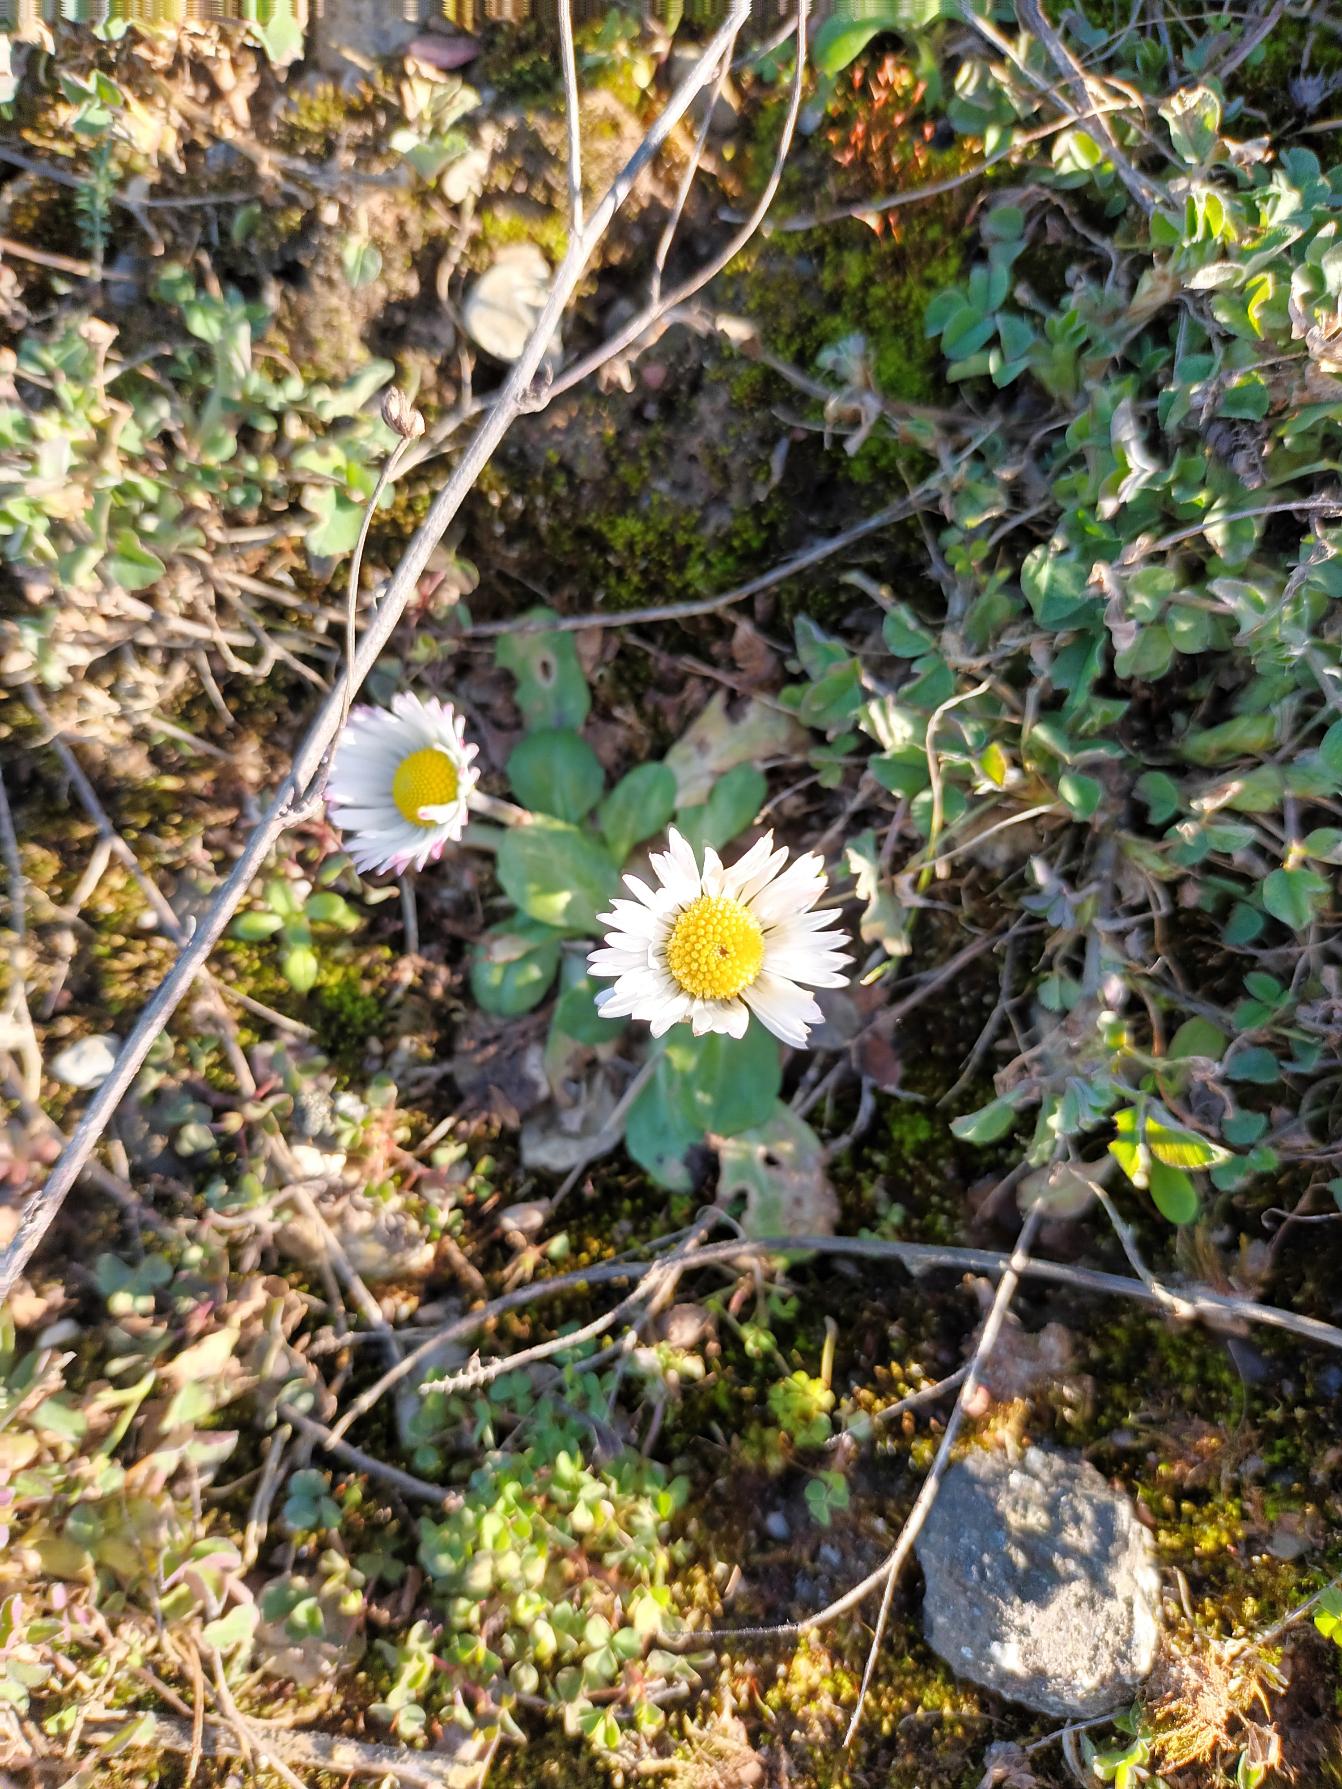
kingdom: Plantae
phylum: Tracheophyta
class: Magnoliopsida
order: Asterales
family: Asteraceae
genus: Bellis
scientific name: Bellis perennis
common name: Tusindfryd
